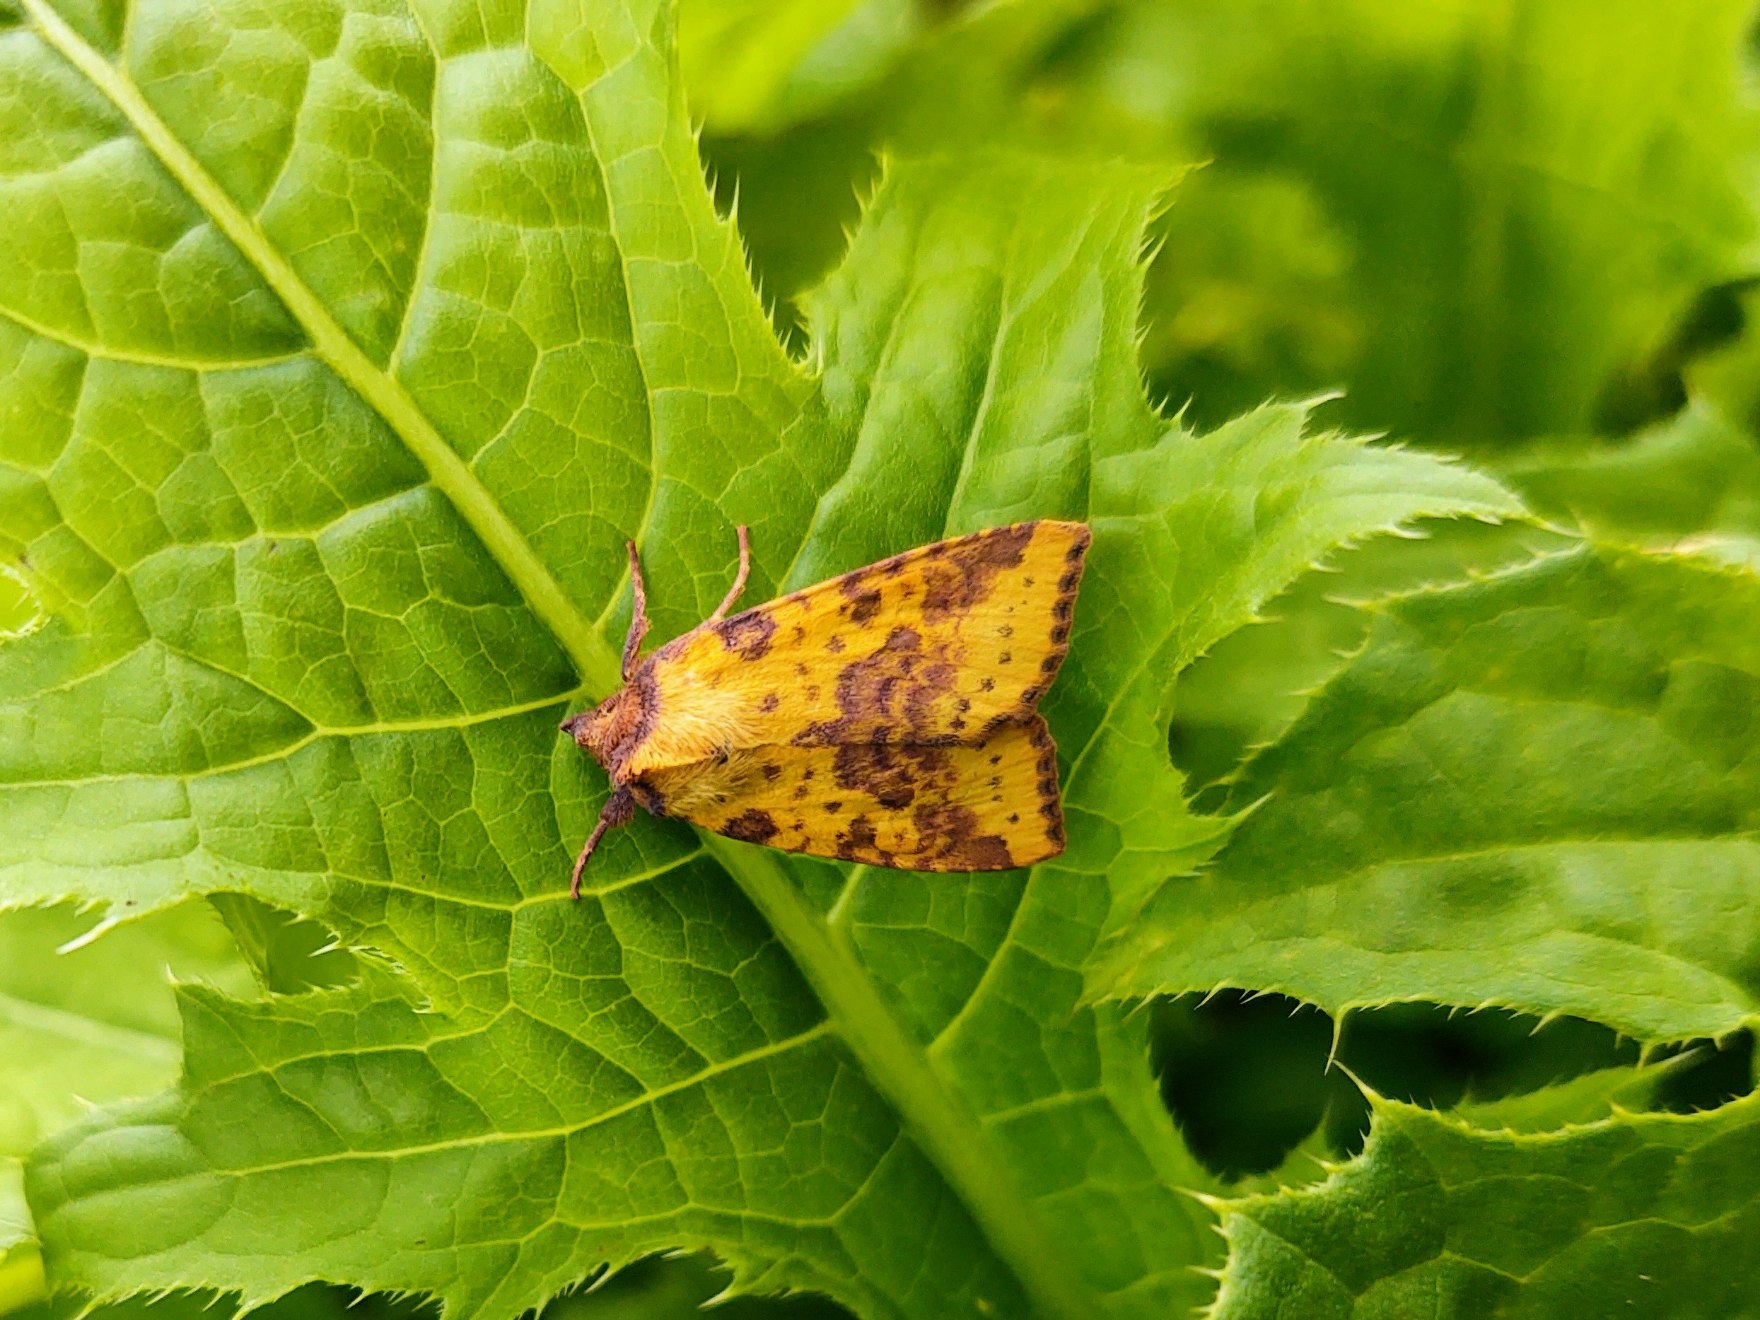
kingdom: Animalia
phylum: Arthropoda
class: Insecta
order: Lepidoptera
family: Noctuidae
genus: Xanthia
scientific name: Xanthia togata
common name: Toga-septemberugle
